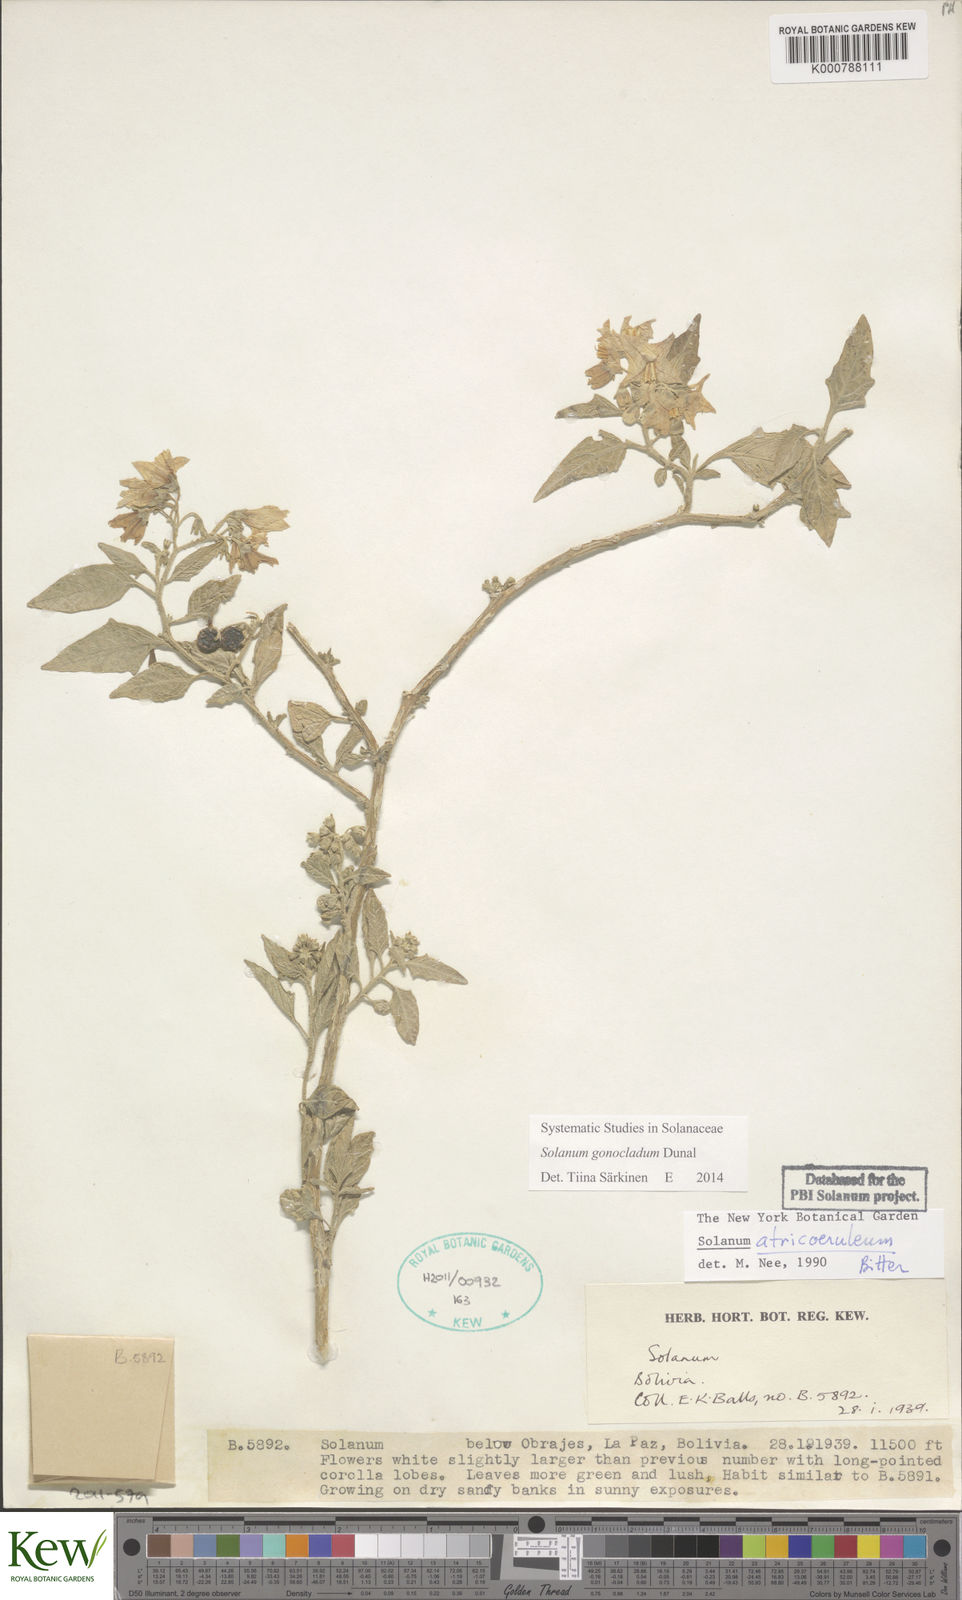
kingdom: Plantae
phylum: Tracheophyta
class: Magnoliopsida
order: Solanales
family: Solanaceae
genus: Solanum
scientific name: Solanum gonocladum
